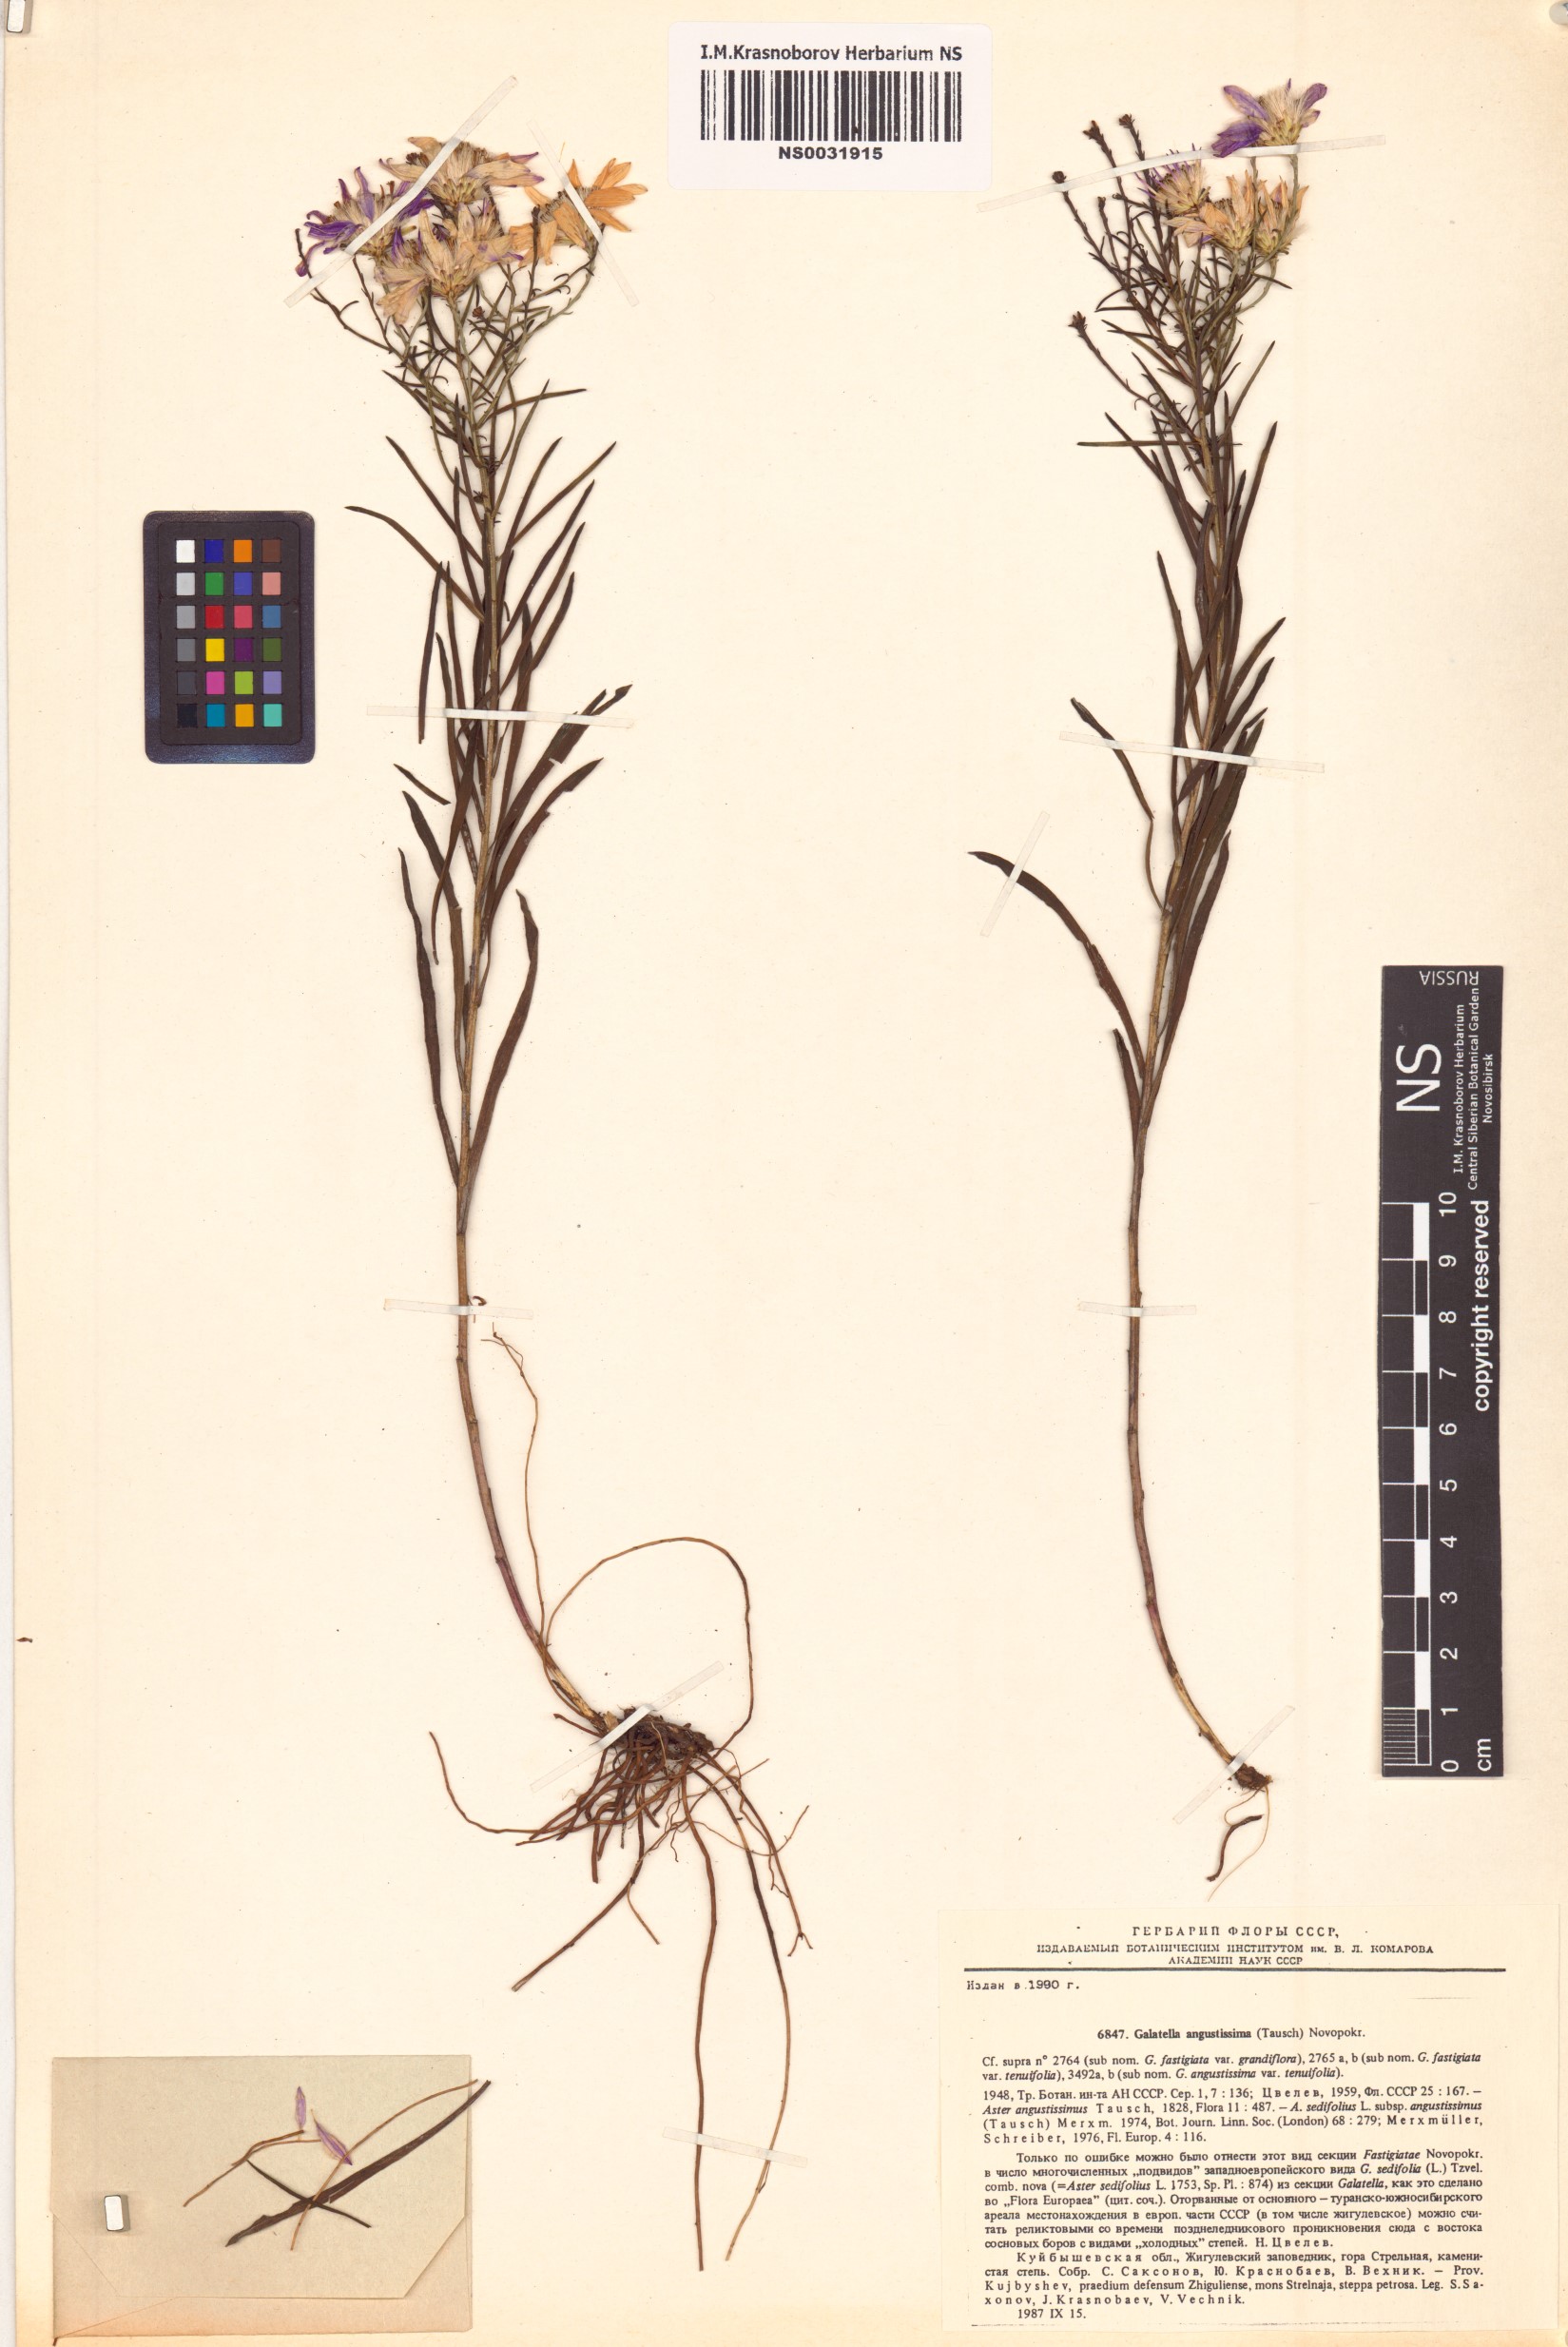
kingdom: Plantae
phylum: Tracheophyta
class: Magnoliopsida
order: Asterales
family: Asteraceae
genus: Galatella
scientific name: Galatella angustissima
